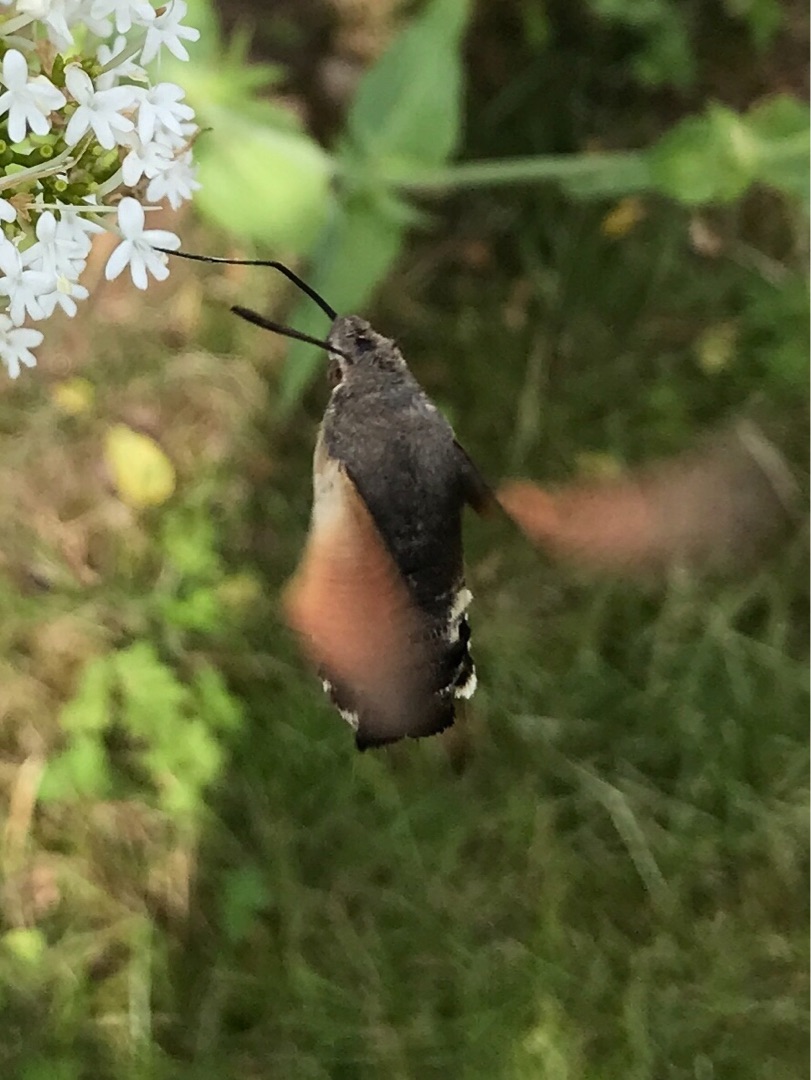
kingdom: Animalia
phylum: Arthropoda
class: Insecta
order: Lepidoptera
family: Sphingidae
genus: Macroglossum
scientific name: Macroglossum stellatarum
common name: Duehale
